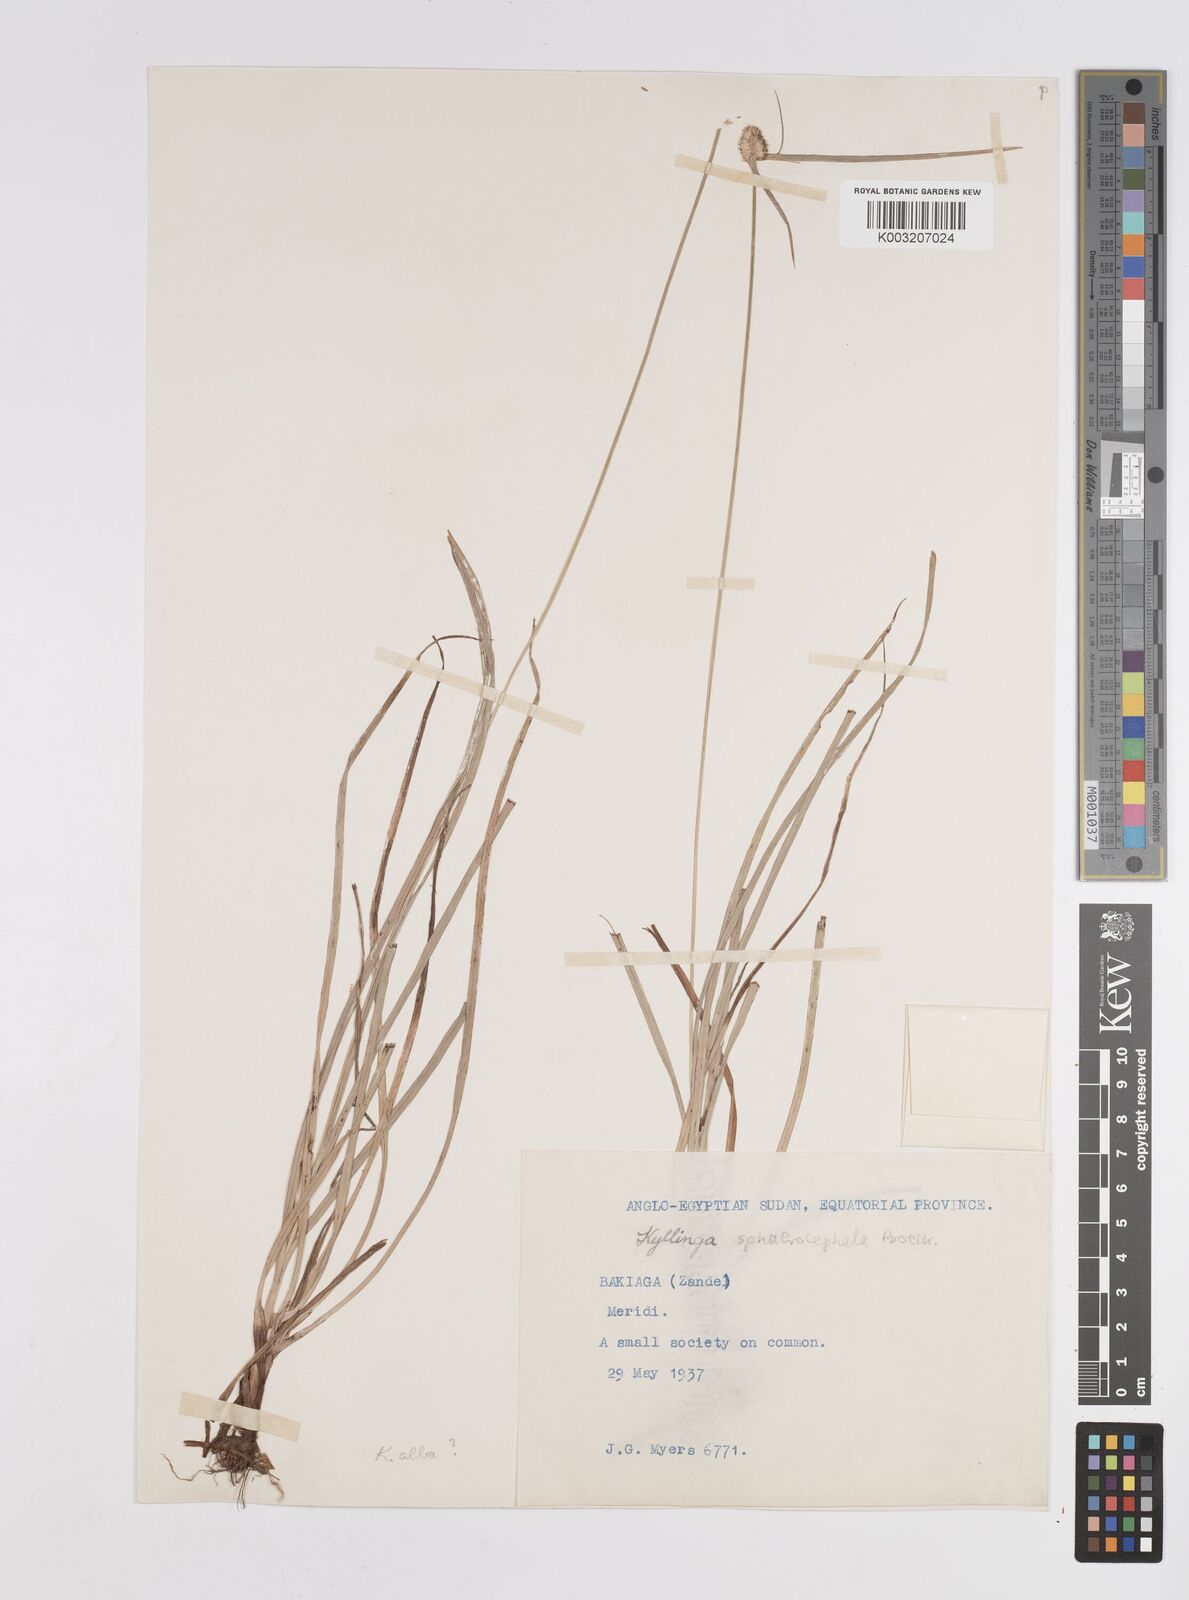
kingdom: Plantae
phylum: Tracheophyta
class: Liliopsida
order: Poales
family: Cyperaceae
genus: Cyperus
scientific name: Cyperus sphaerocephalus
